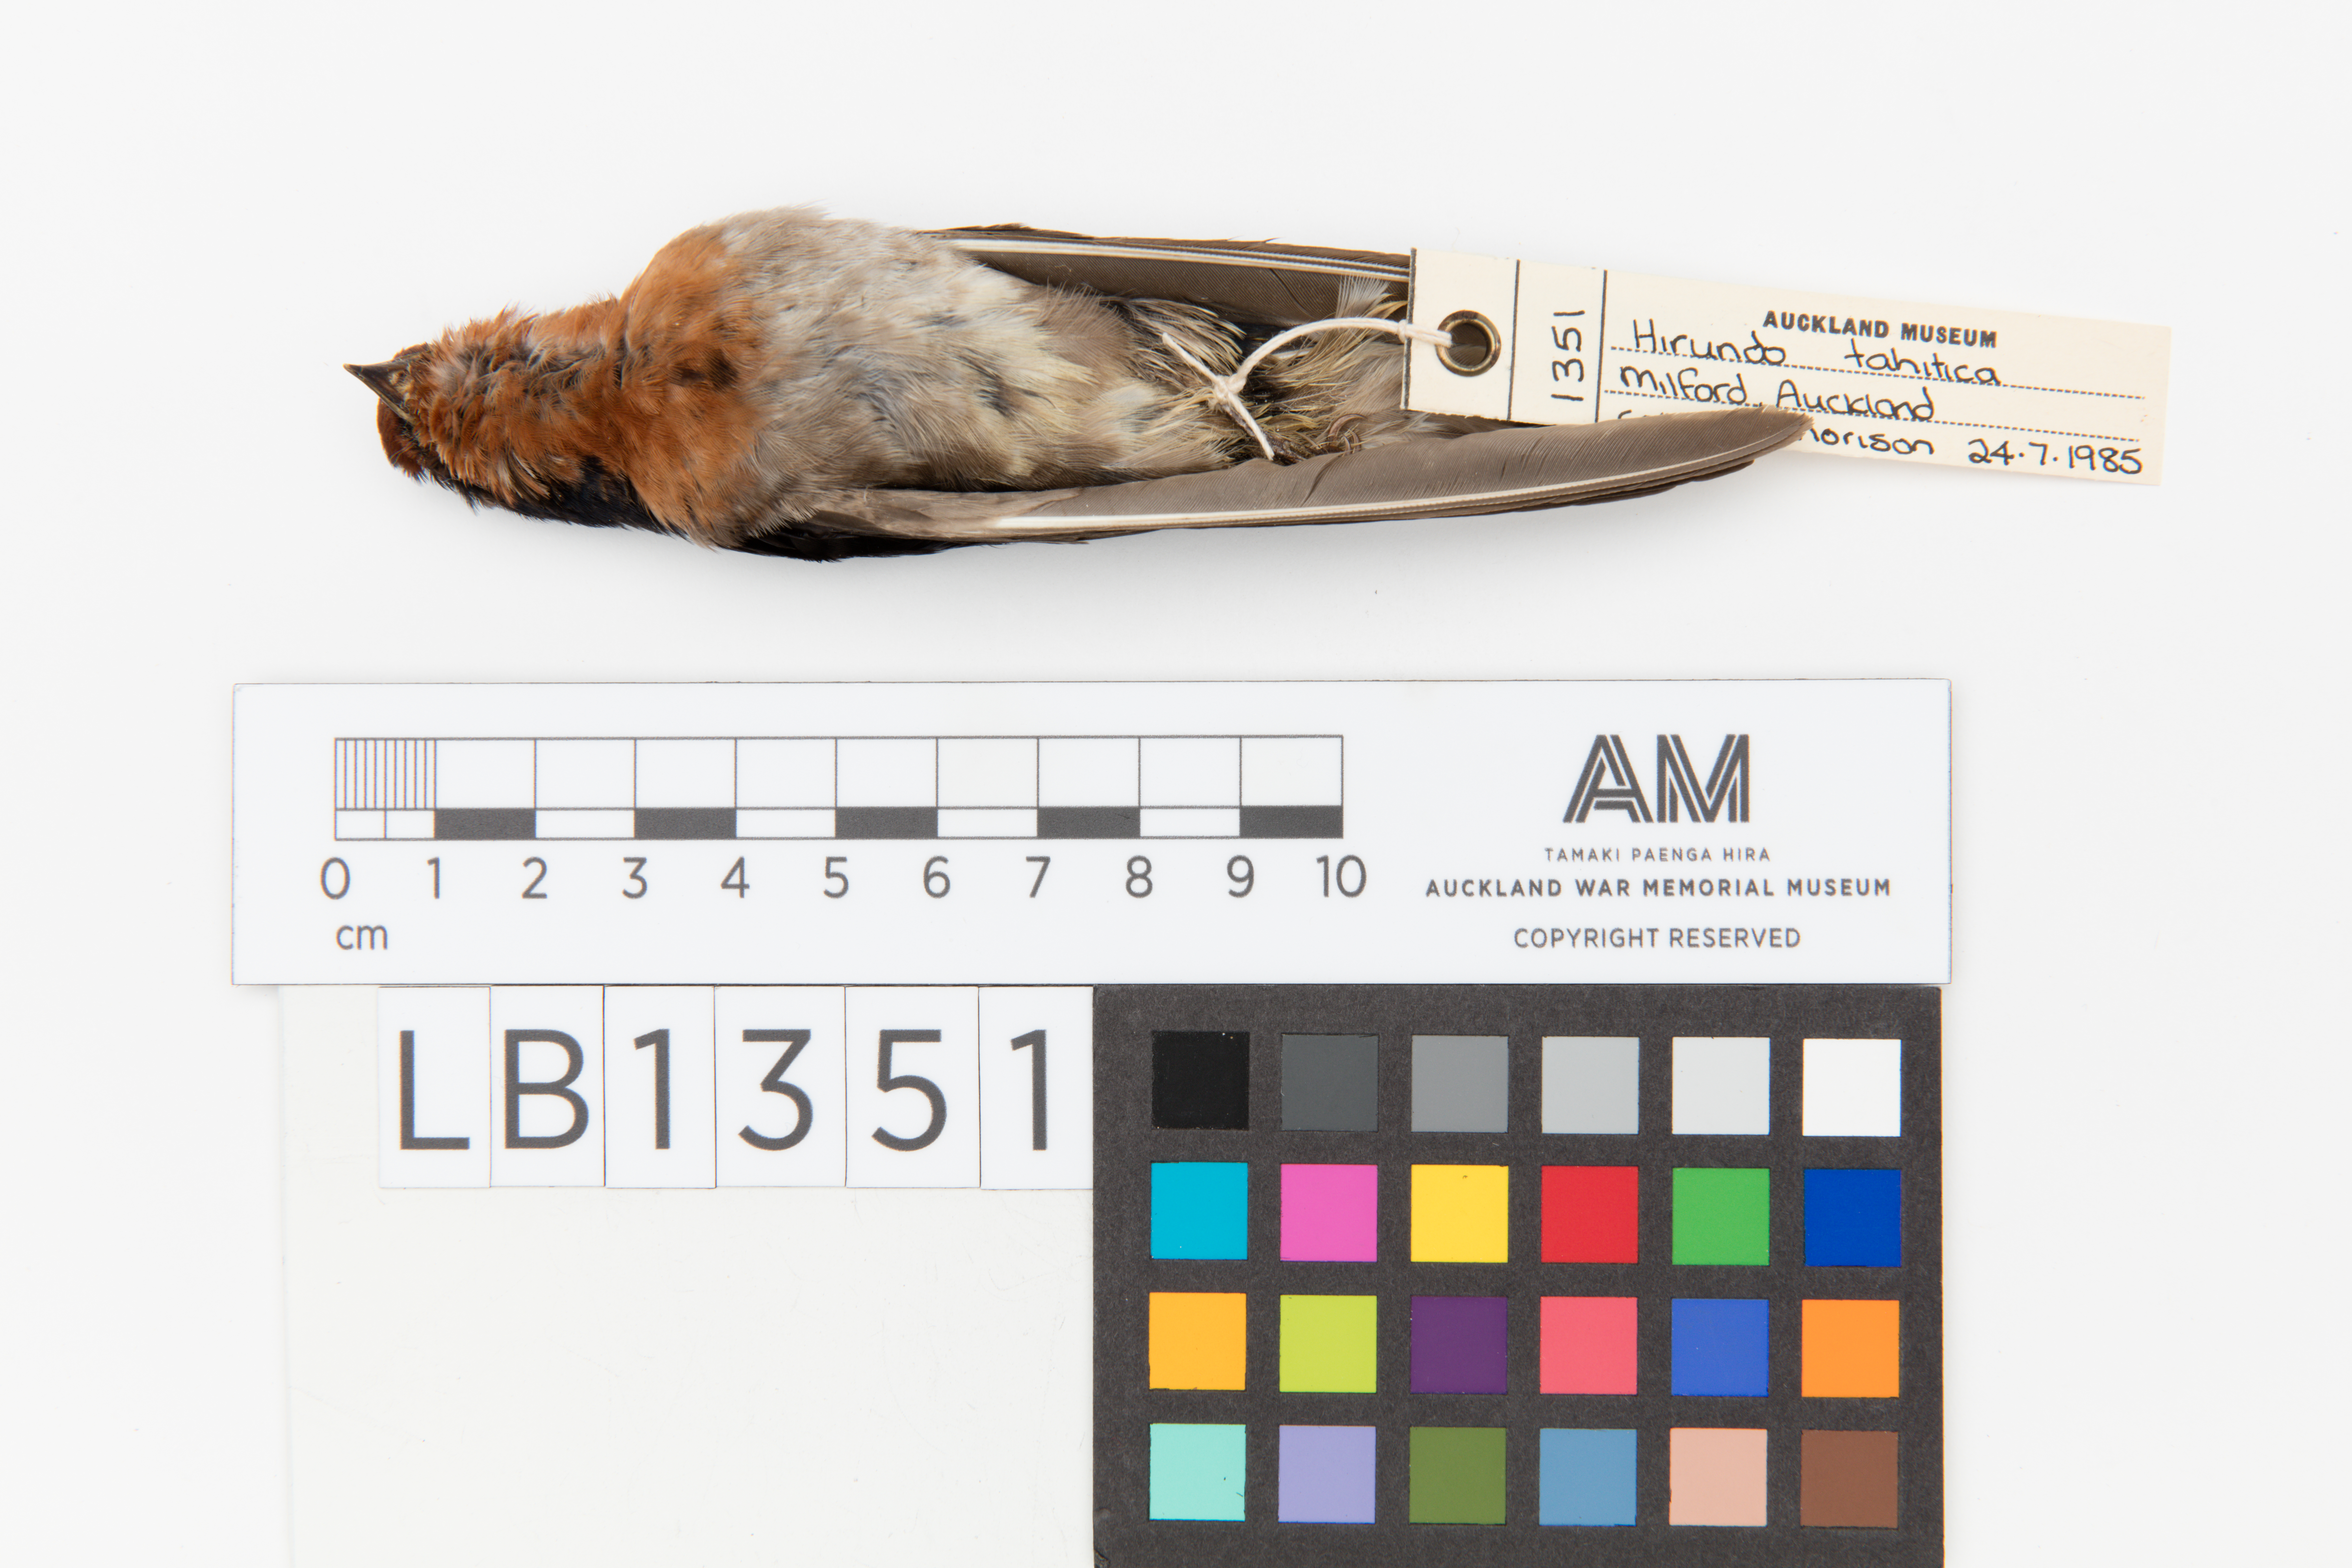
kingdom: Animalia
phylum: Chordata
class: Aves
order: Passeriformes
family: Hirundinidae
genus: Hirundo
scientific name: Hirundo neoxena
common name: Welcome swallow
